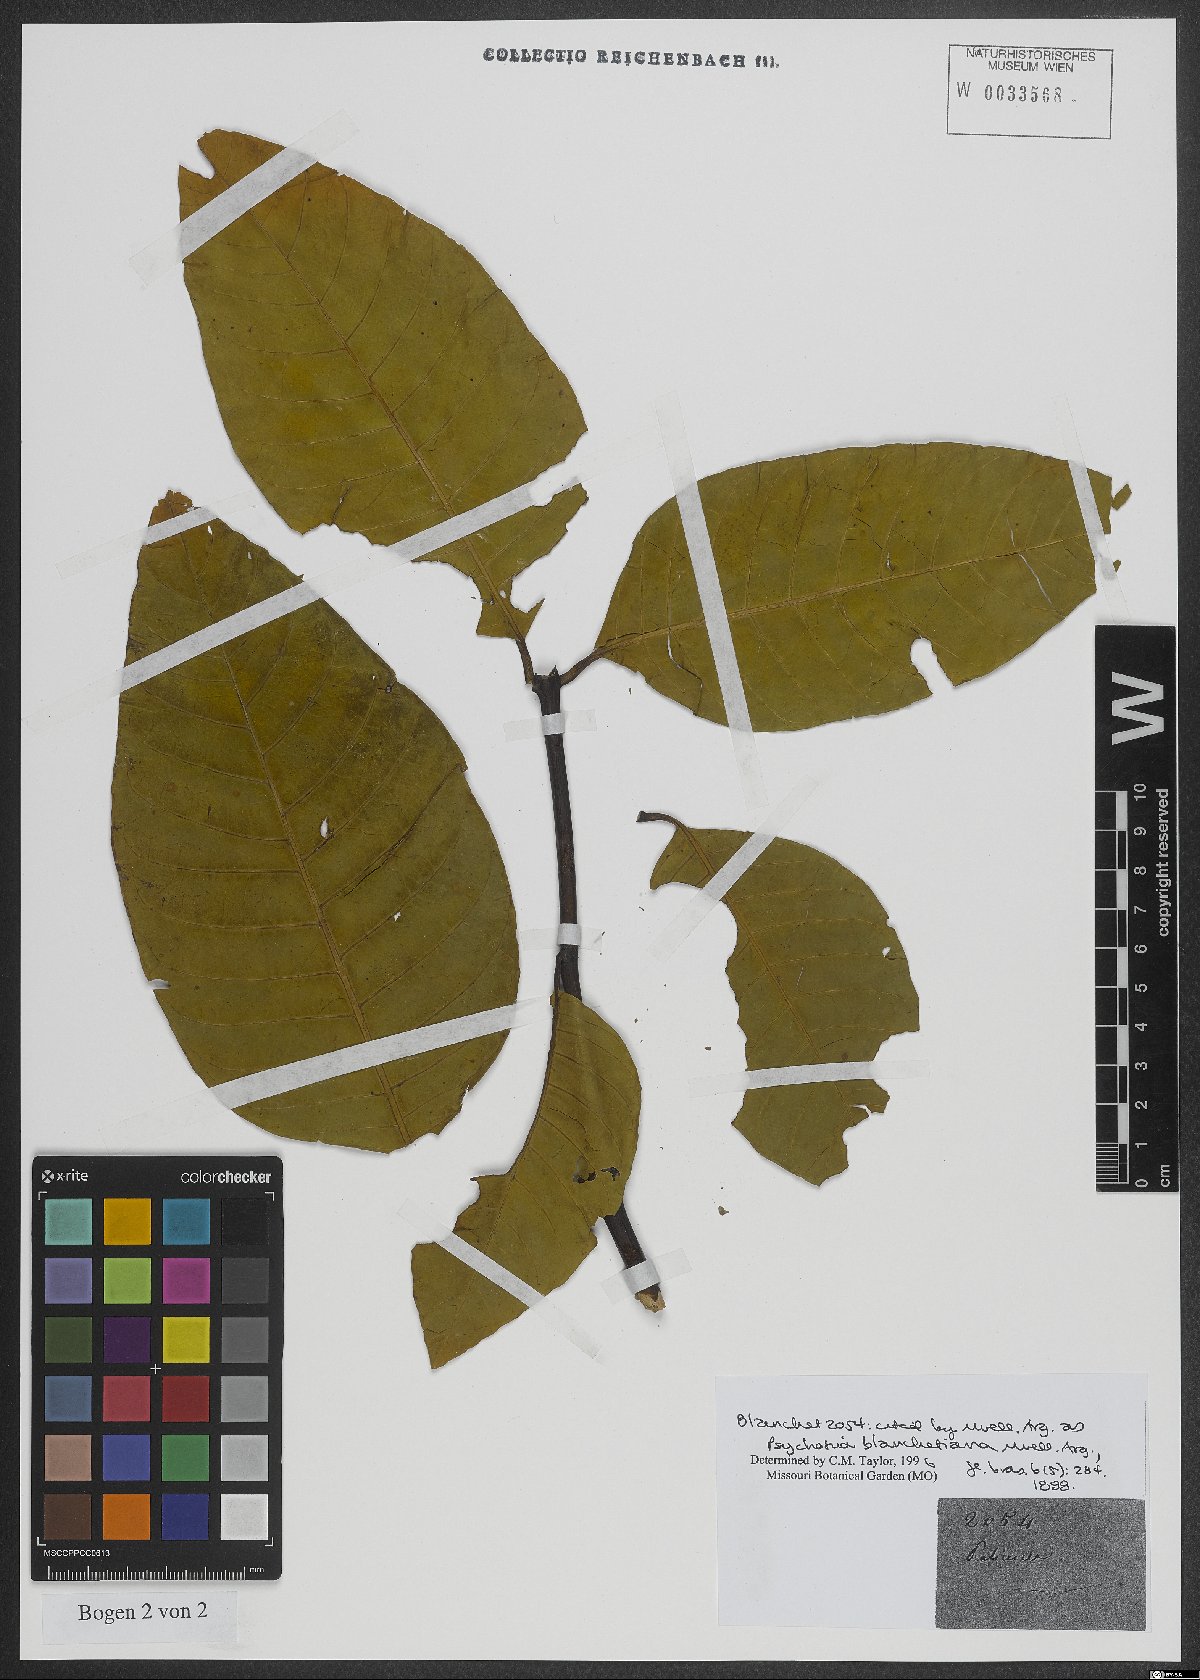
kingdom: Plantae
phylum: Tracheophyta
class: Magnoliopsida
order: Gentianales
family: Rubiaceae
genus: Palicourea
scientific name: Palicourea blanchetiana
